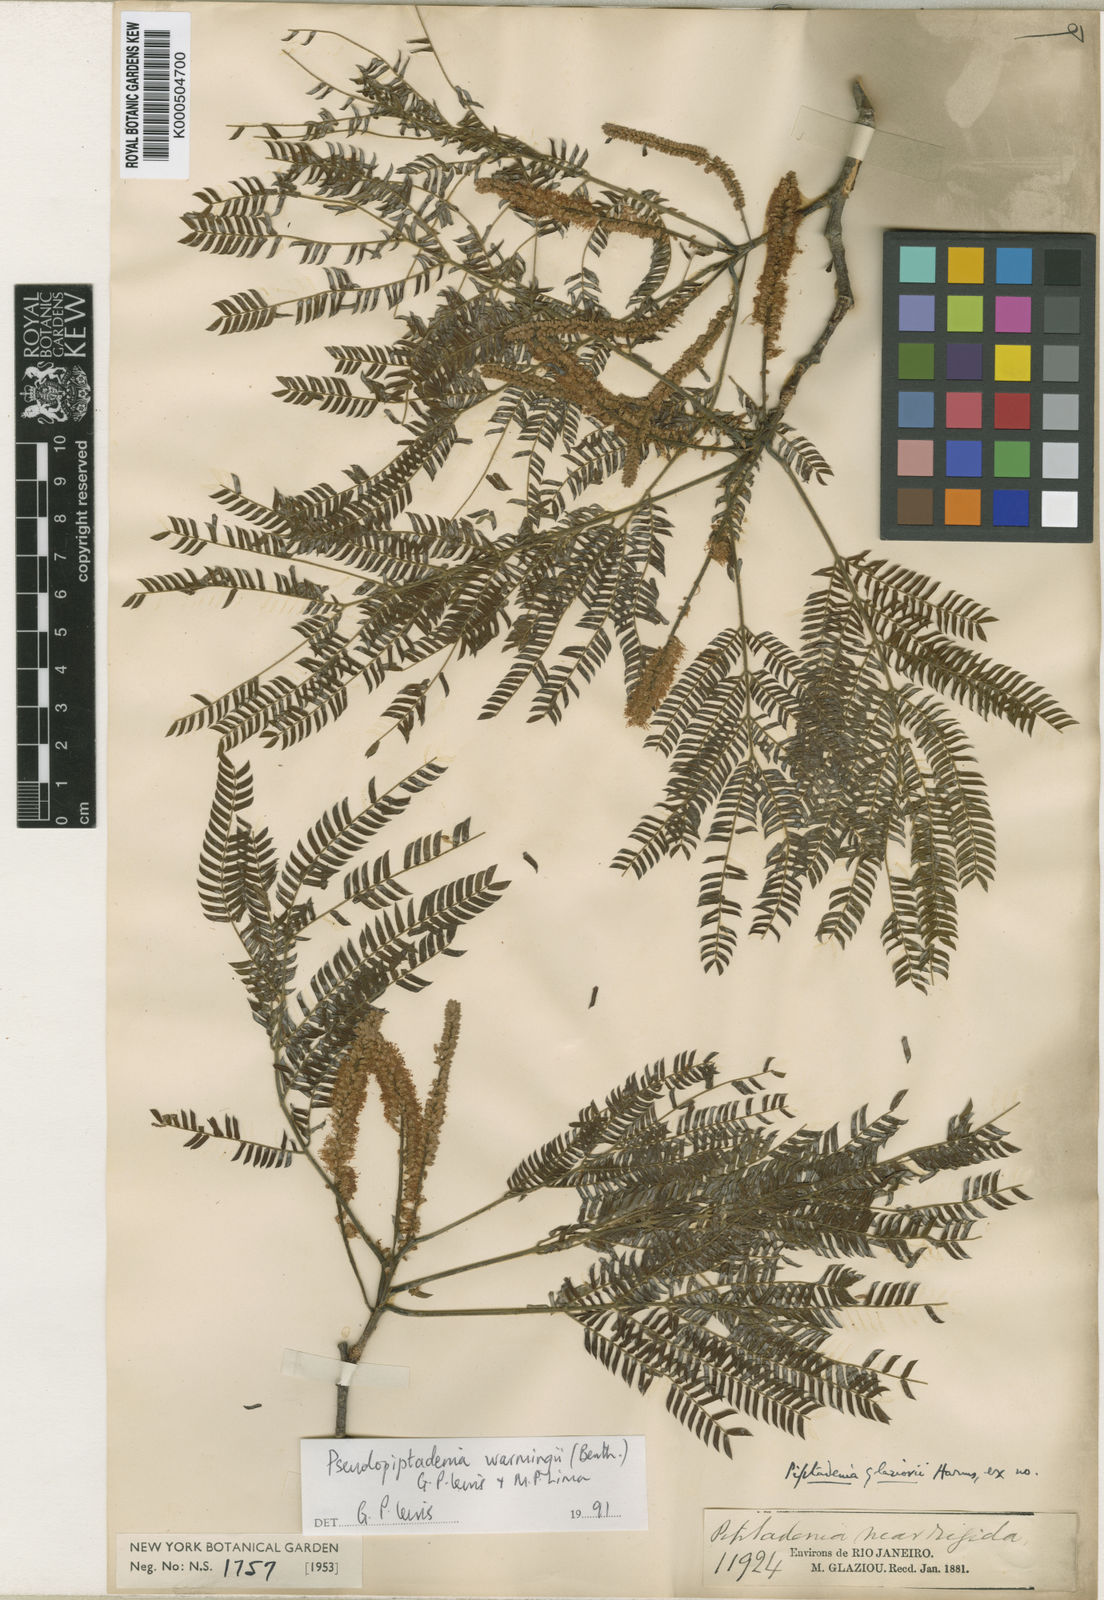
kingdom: Plantae
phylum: Tracheophyta
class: Magnoliopsida
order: Fabales
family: Fabaceae
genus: Pseudopiptadenia
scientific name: Pseudopiptadenia warmingii
